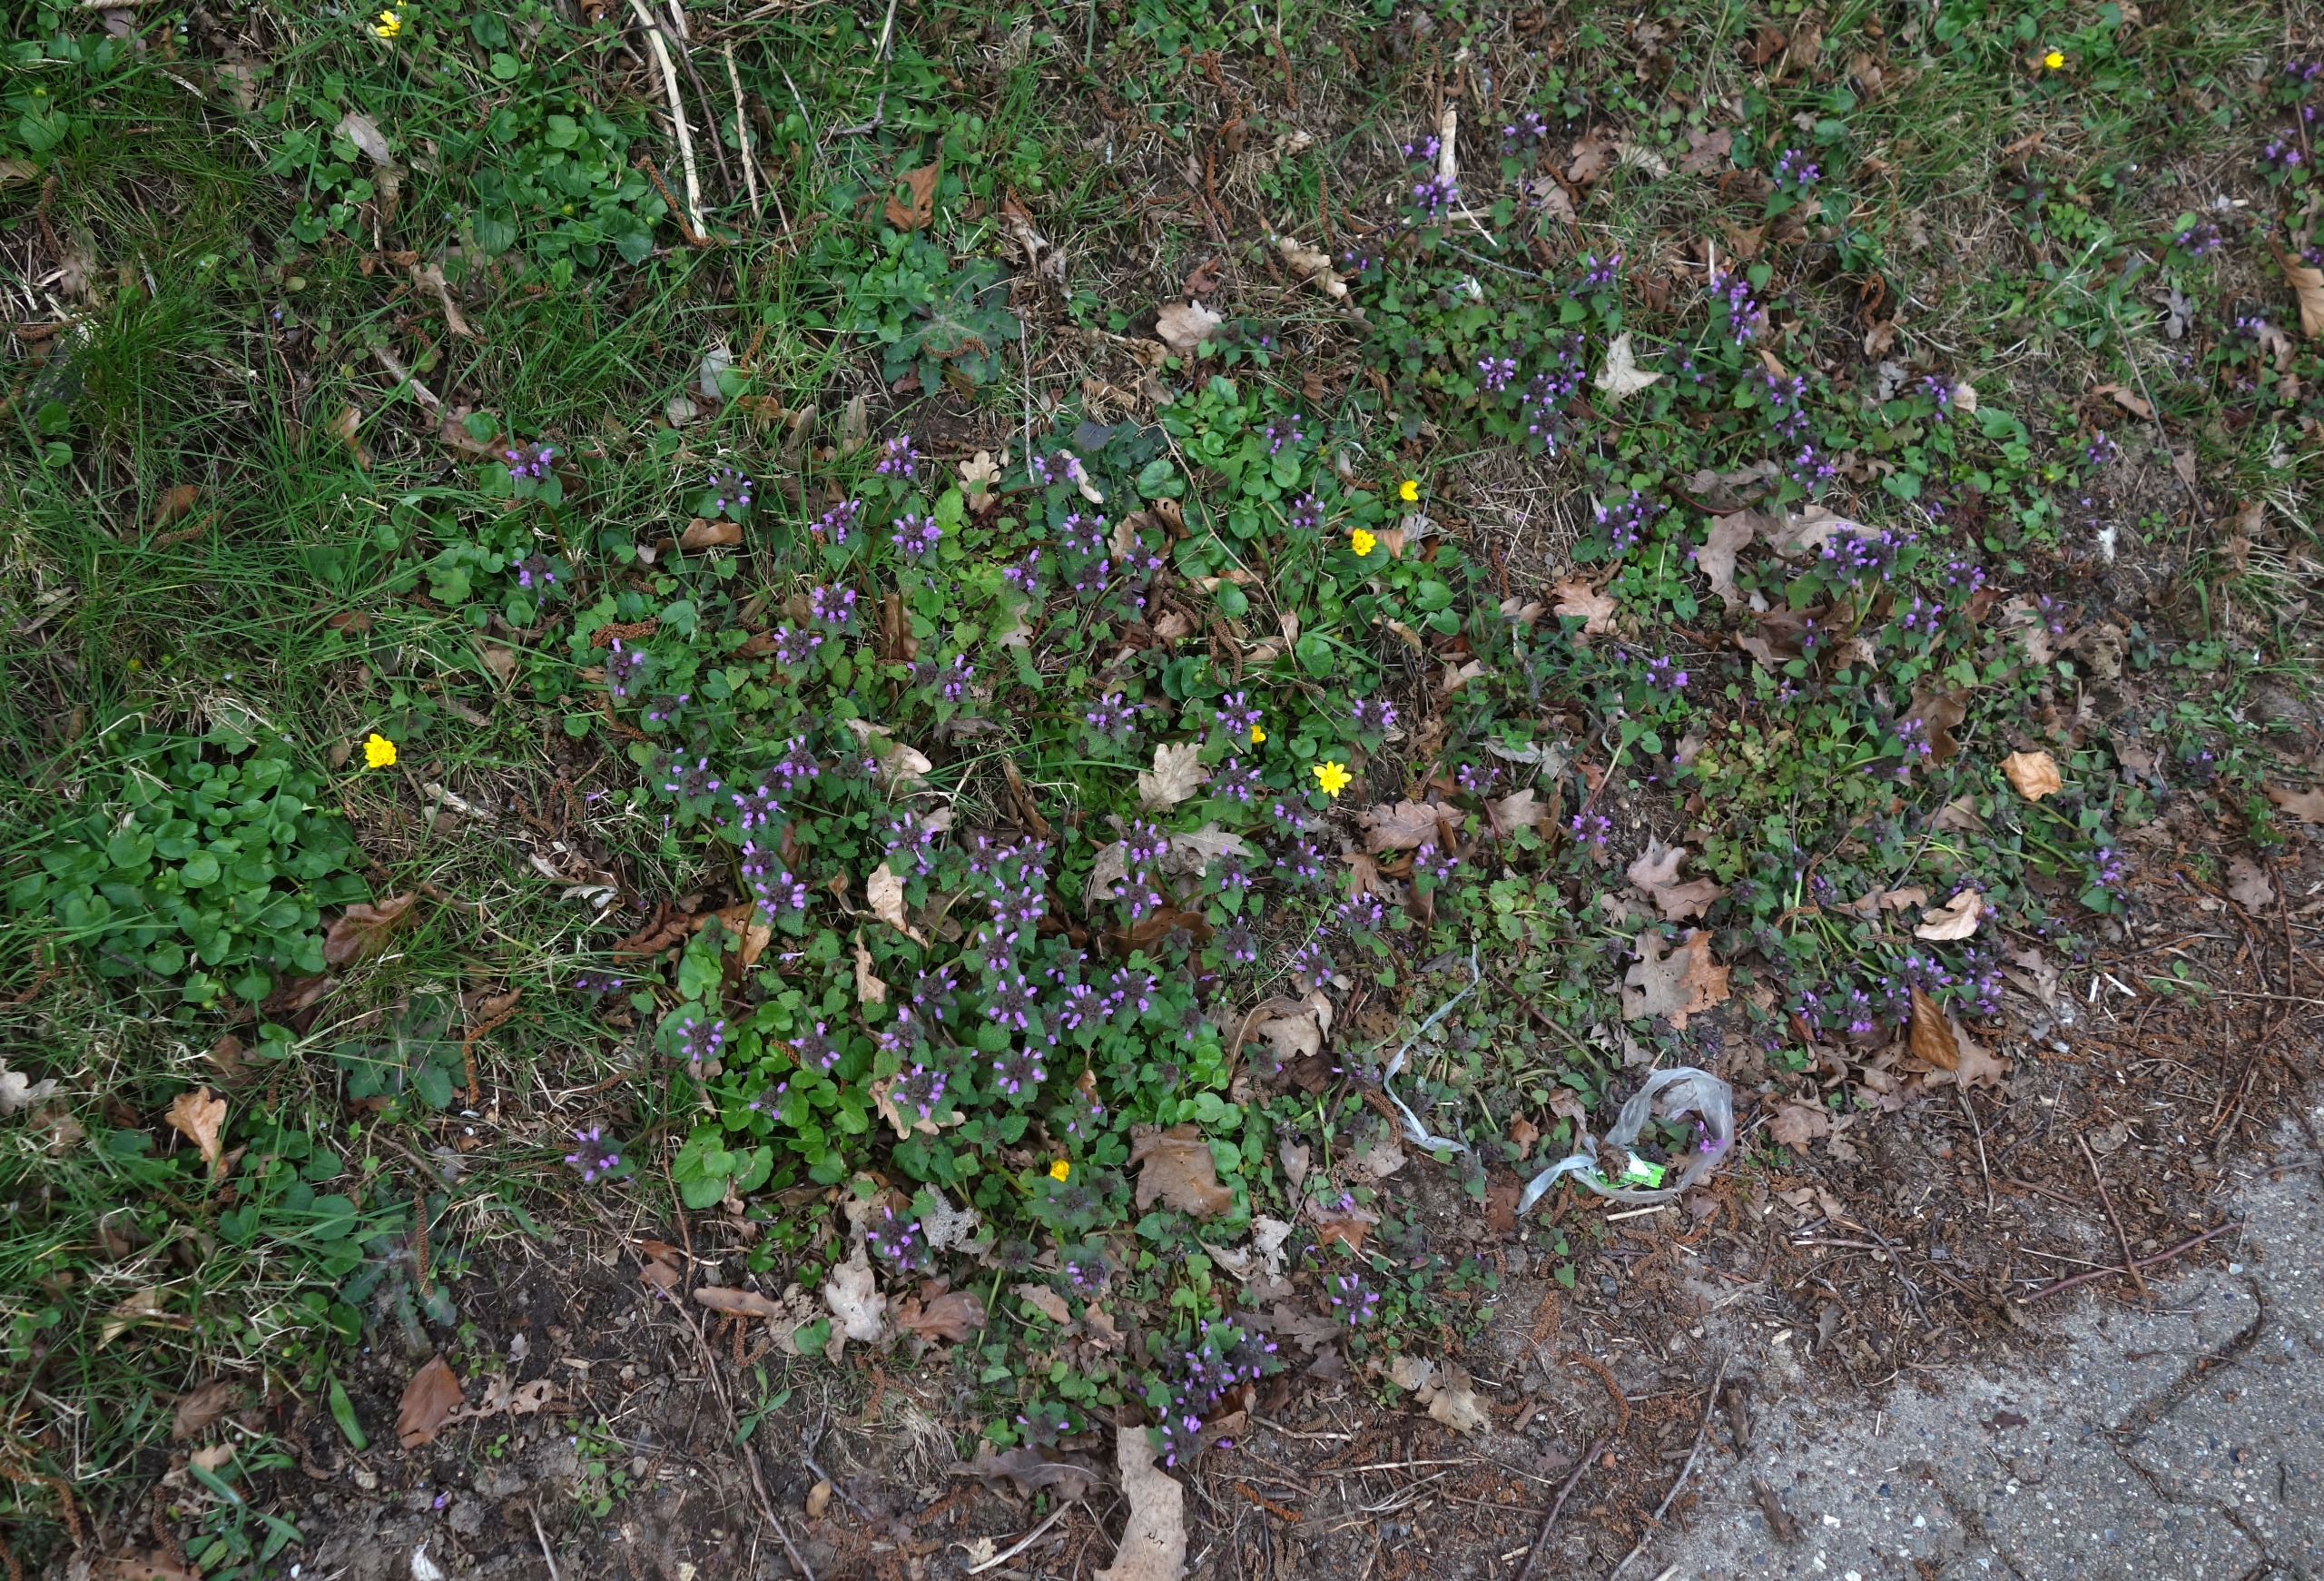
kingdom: Plantae
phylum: Tracheophyta
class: Magnoliopsida
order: Lamiales
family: Lamiaceae
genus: Lamium
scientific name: Lamium purpureum
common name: Rød tvetand
